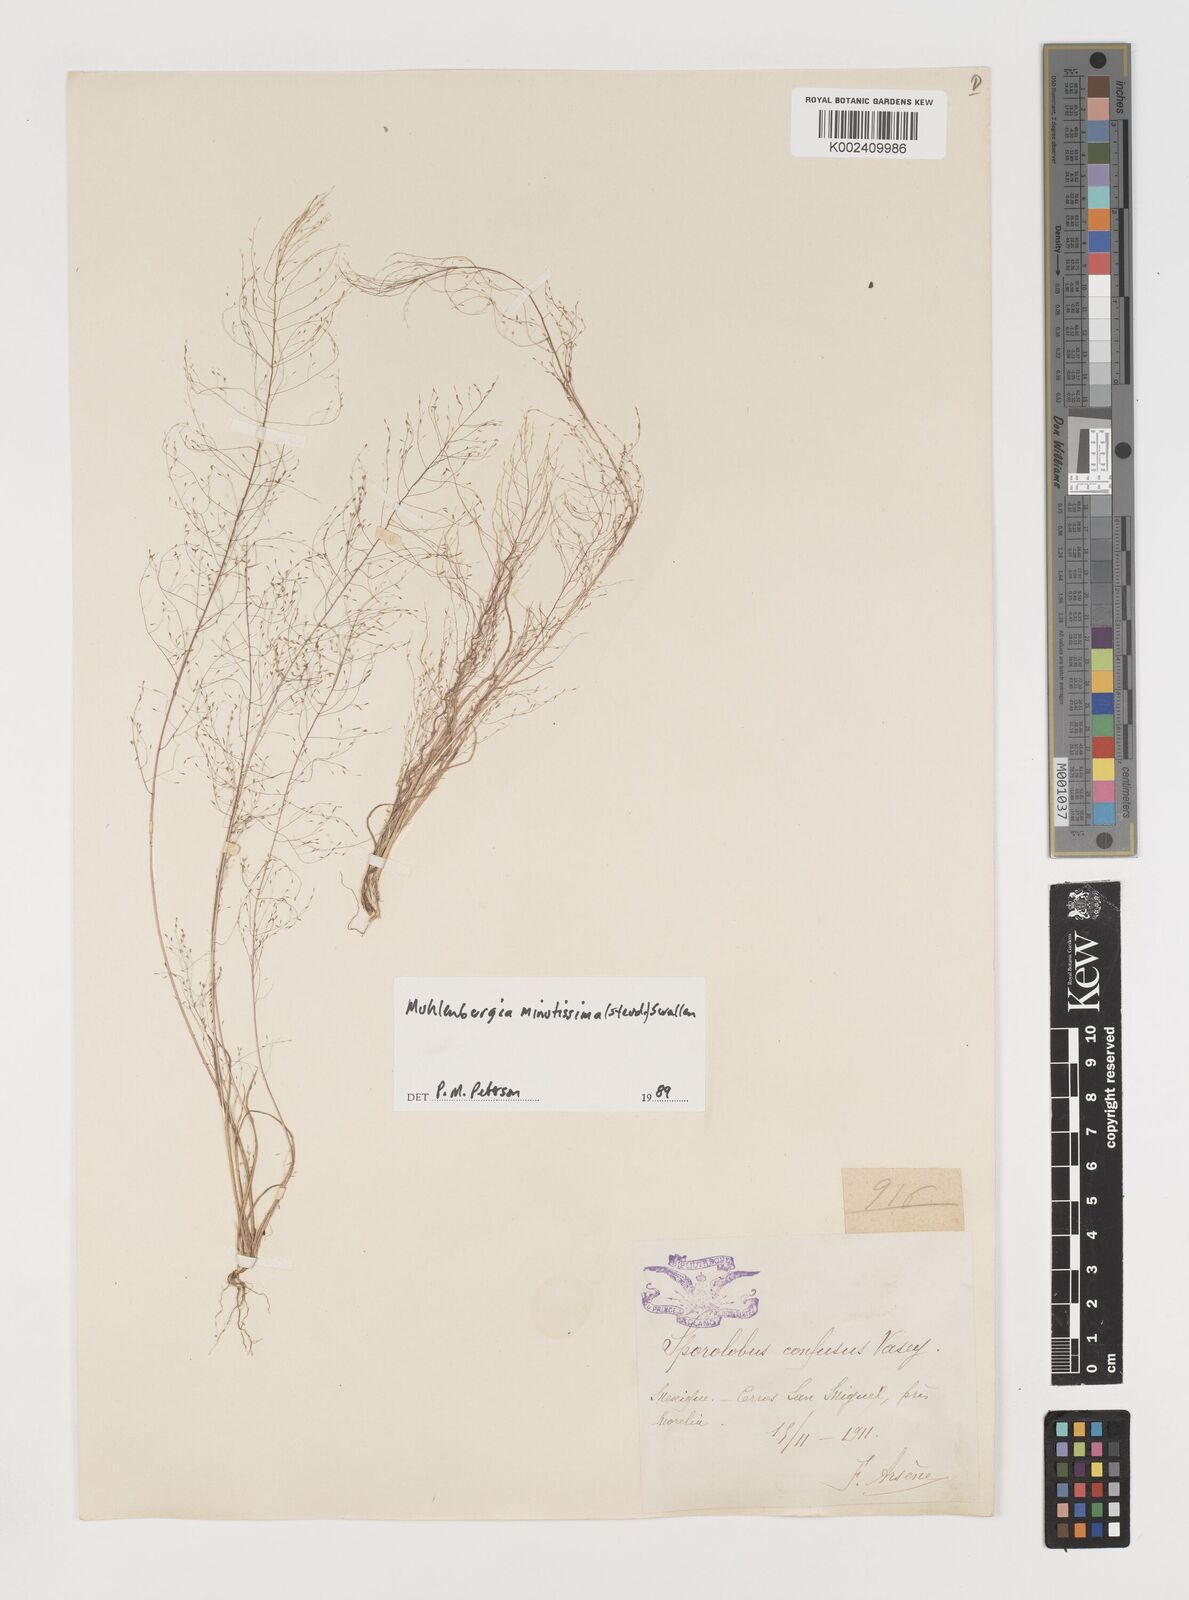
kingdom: Plantae
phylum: Tracheophyta
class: Liliopsida
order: Poales
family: Poaceae
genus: Muhlenbergia
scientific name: Muhlenbergia minutissima
